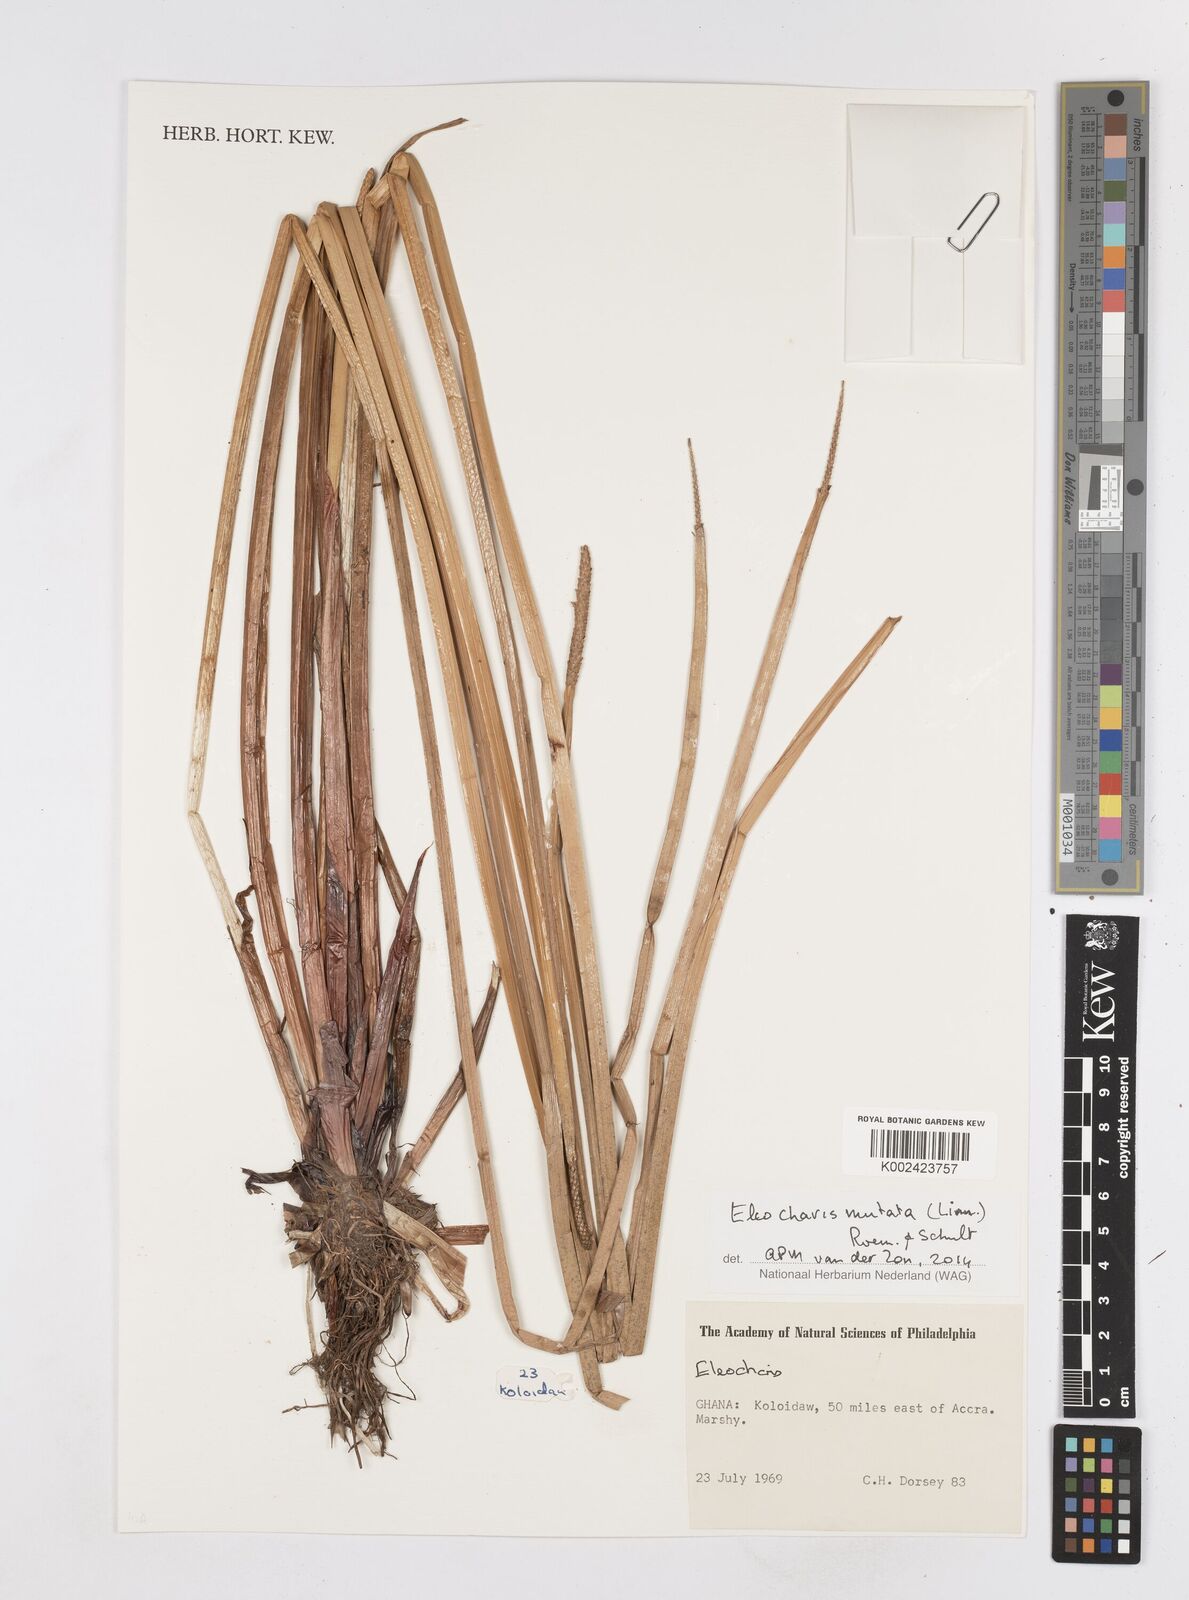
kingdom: Plantae
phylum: Tracheophyta
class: Liliopsida
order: Poales
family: Cyperaceae
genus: Eleocharis
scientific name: Eleocharis mutata
